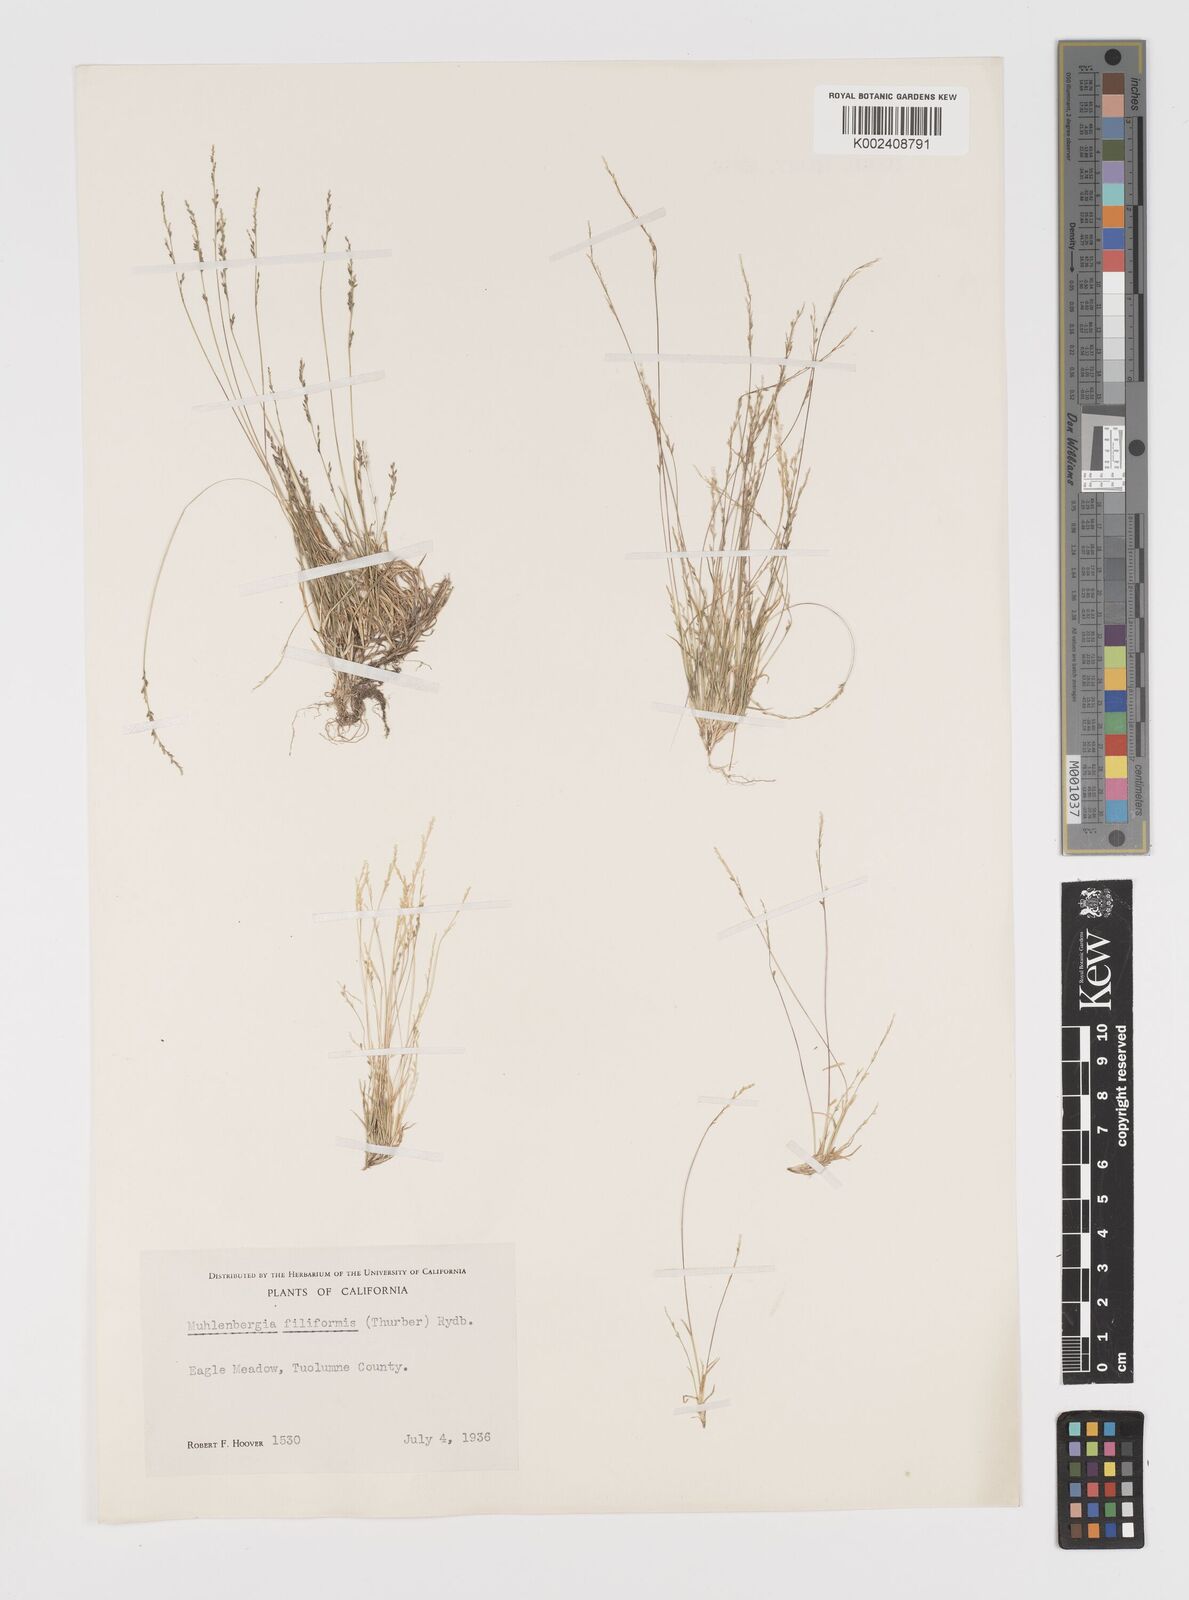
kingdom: Plantae
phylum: Tracheophyta
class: Liliopsida
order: Poales
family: Poaceae
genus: Leptochloa
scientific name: Leptochloa mucronata
